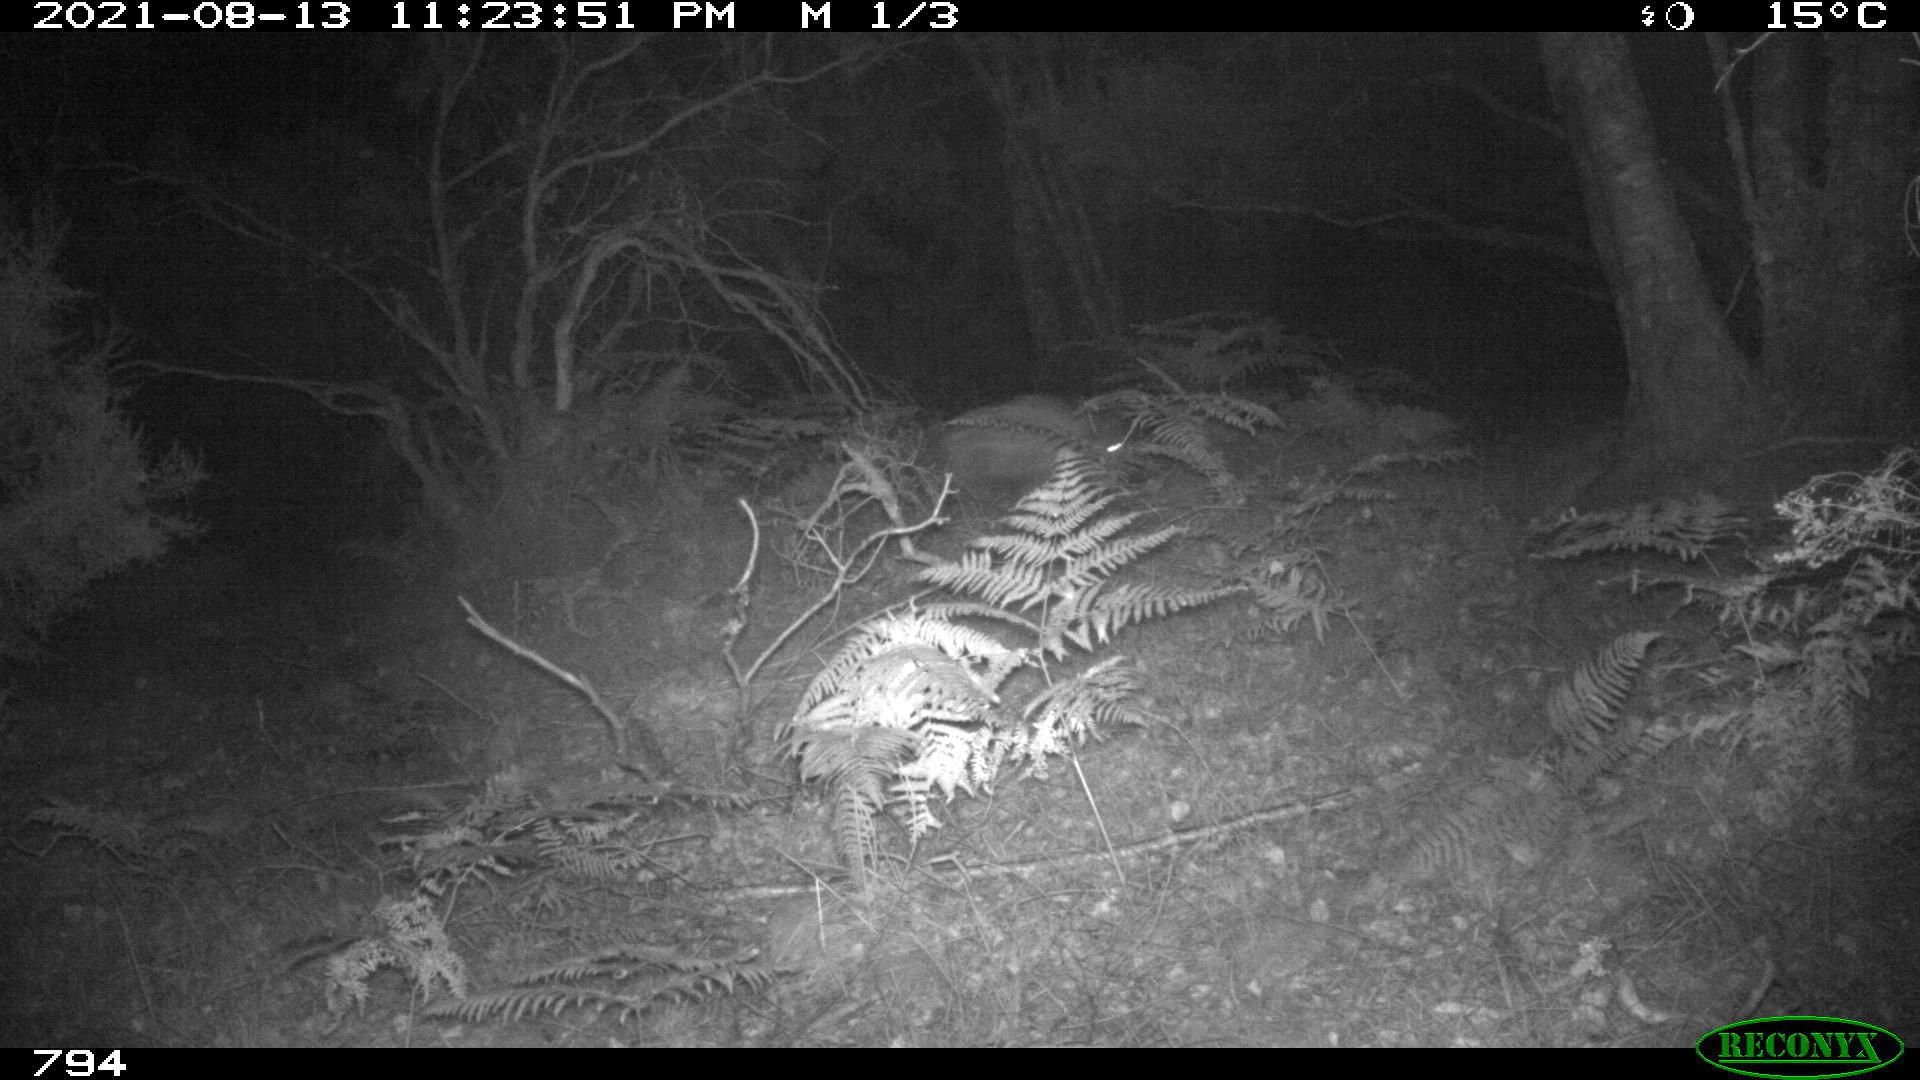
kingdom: Animalia
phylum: Chordata
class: Mammalia
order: Artiodactyla
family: Suidae
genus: Sus
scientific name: Sus scrofa
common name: Wild boar
